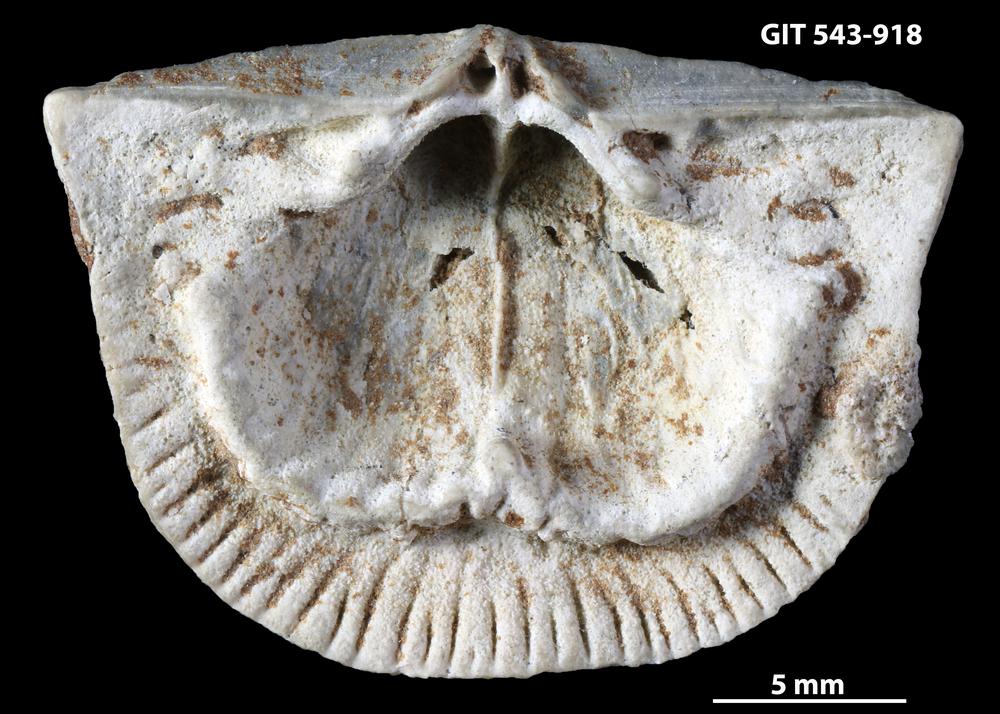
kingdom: Animalia
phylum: Brachiopoda
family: Gonambonitidae
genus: Estlandia
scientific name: Estlandia Orthisina marginata
